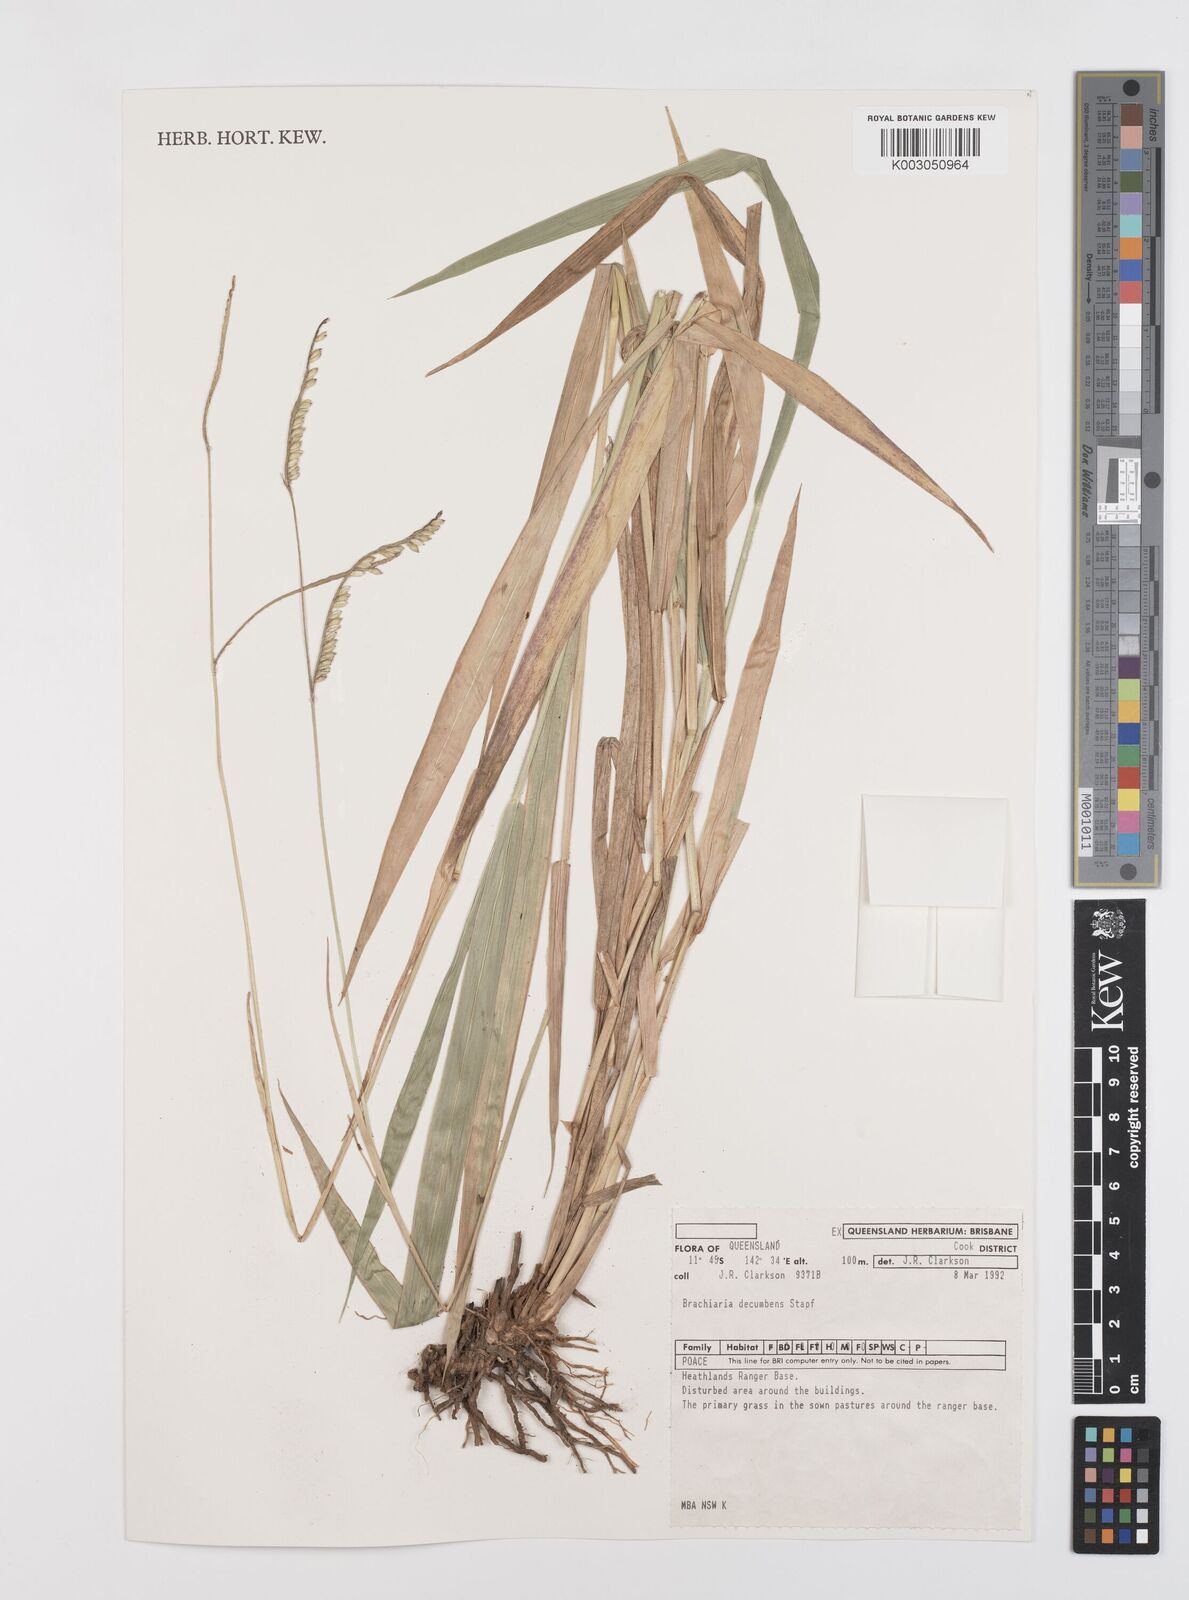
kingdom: Plantae
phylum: Tracheophyta
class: Liliopsida
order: Poales
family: Poaceae
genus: Urochloa
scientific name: Urochloa eminii
